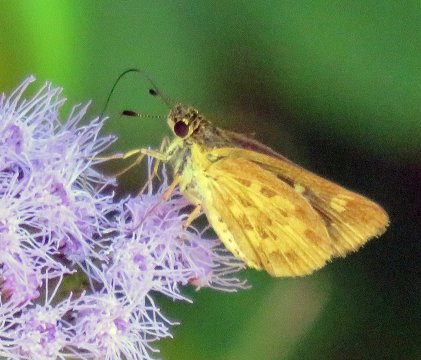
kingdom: Animalia
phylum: Arthropoda
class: Insecta
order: Lepidoptera
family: Hesperiidae
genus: Mastor
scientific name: Mastor carolina
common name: Carolina Roadside-Skipper
